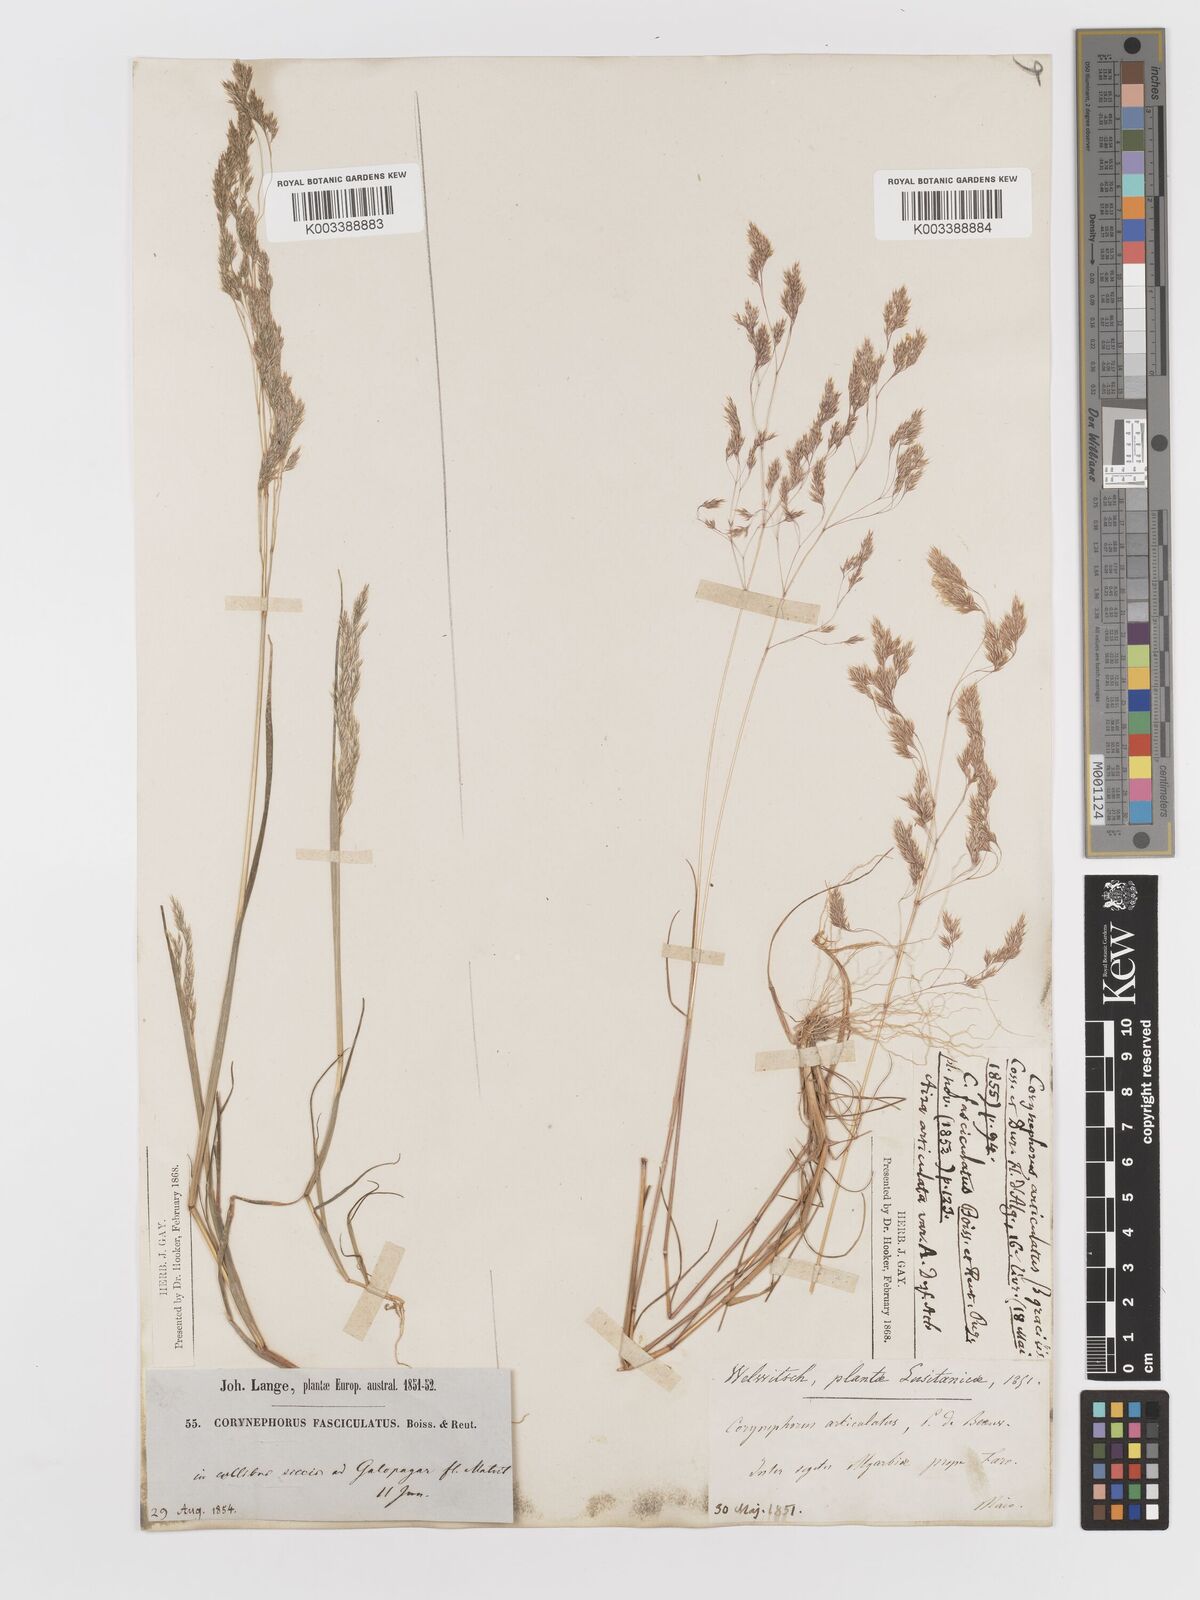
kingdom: Plantae
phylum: Tracheophyta
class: Liliopsida
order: Poales
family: Poaceae
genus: Corynephorus
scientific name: Corynephorus fasciculatus
